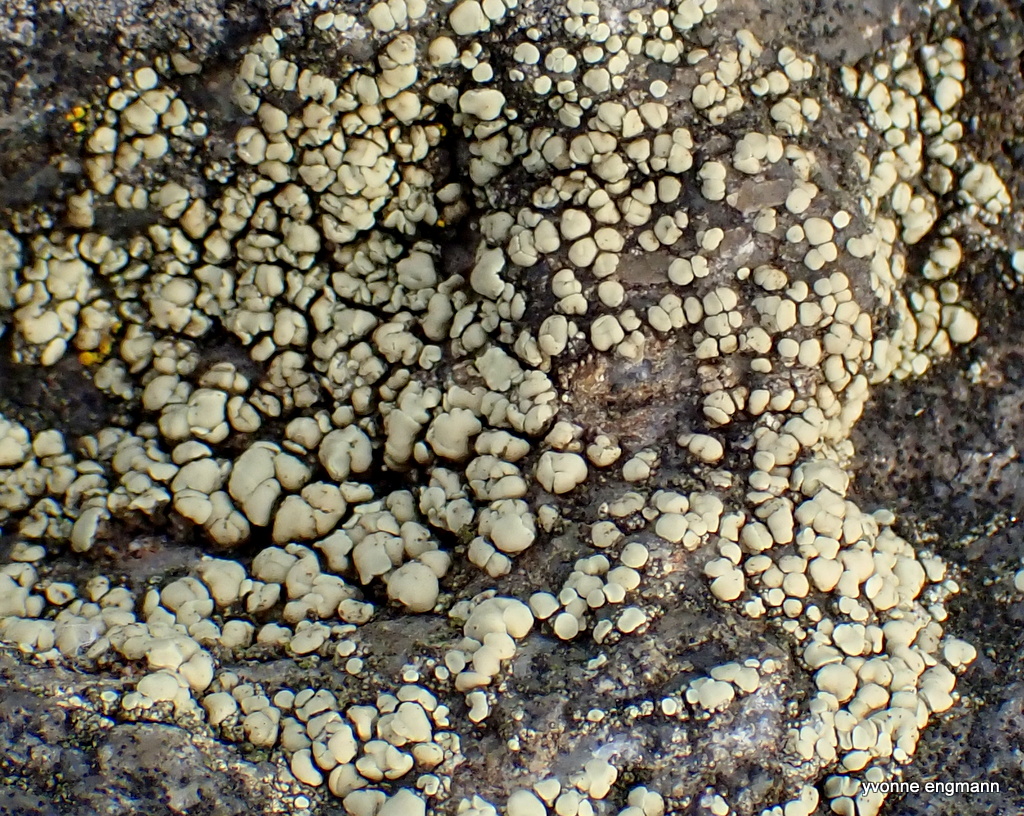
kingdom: Fungi
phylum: Ascomycota
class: Lecanoromycetes
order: Lecanorales
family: Lecanoraceae
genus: Lecanora
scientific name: Lecanora polytropa
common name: bleggrøn kantskivelav
